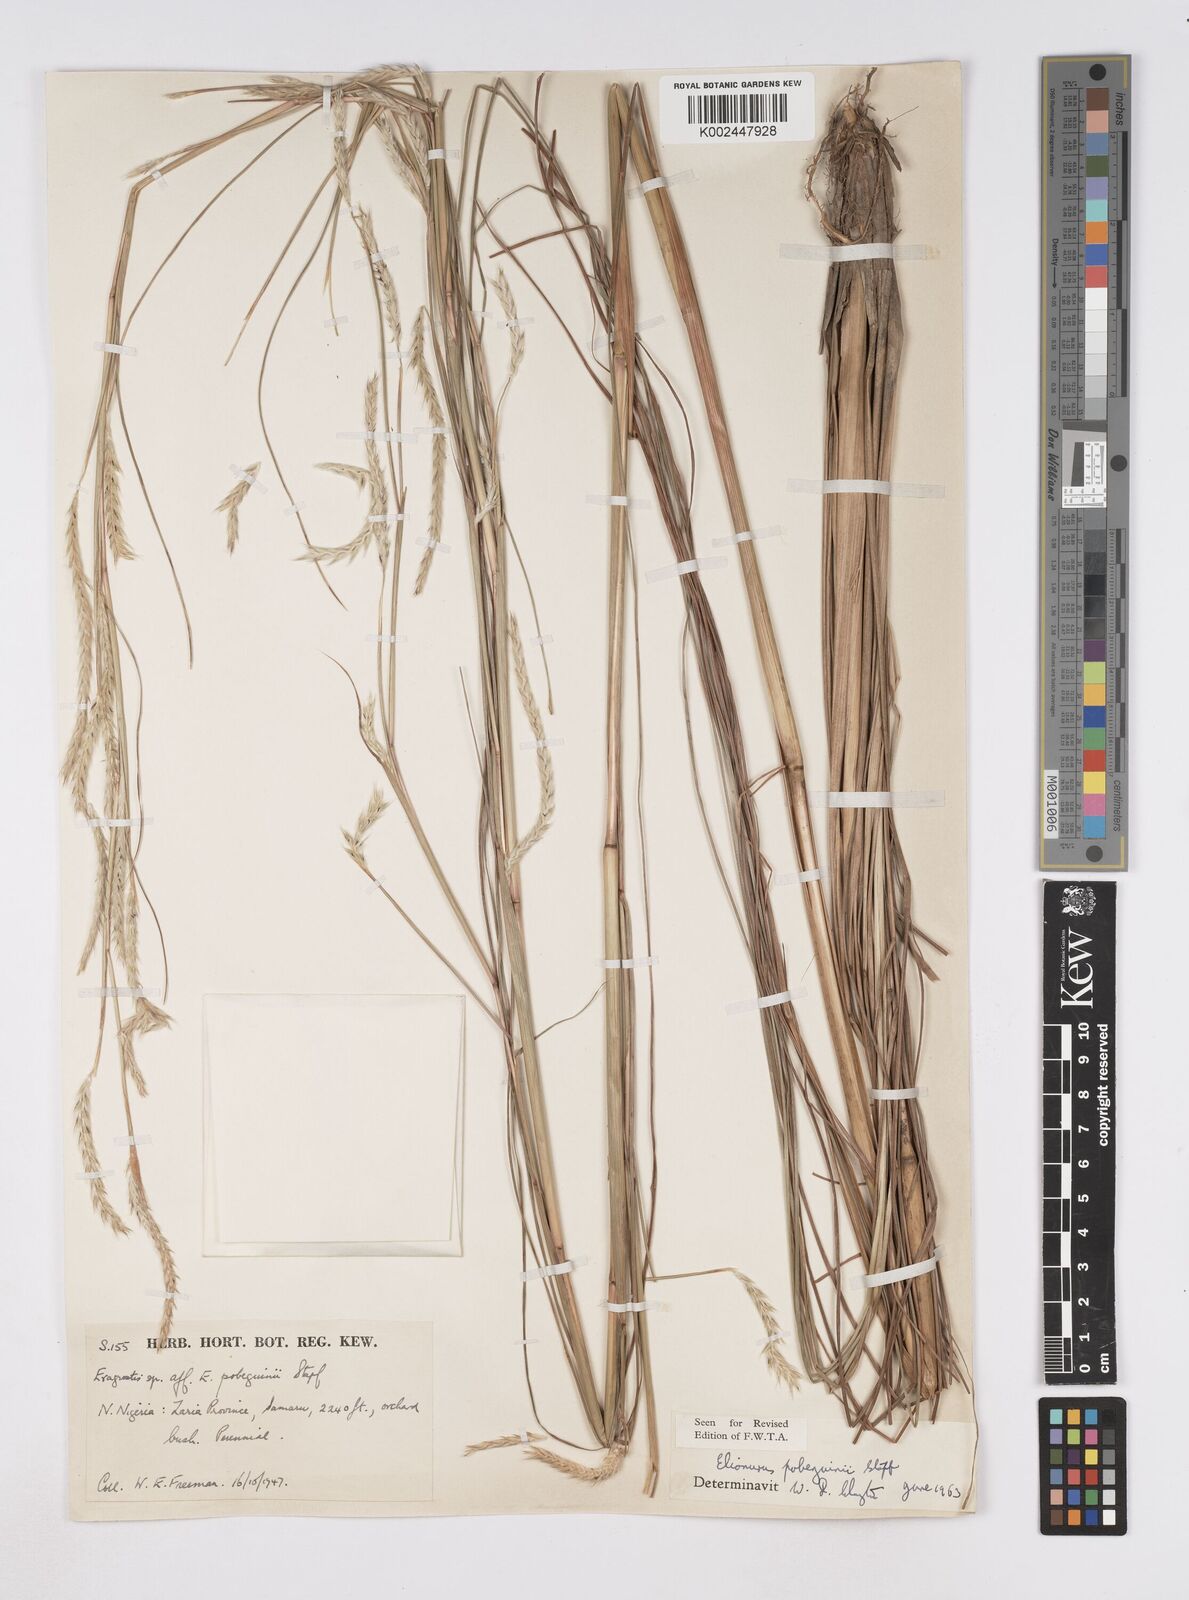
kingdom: Plantae
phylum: Tracheophyta
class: Liliopsida
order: Poales
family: Poaceae
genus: Elionurus
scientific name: Elionurus
